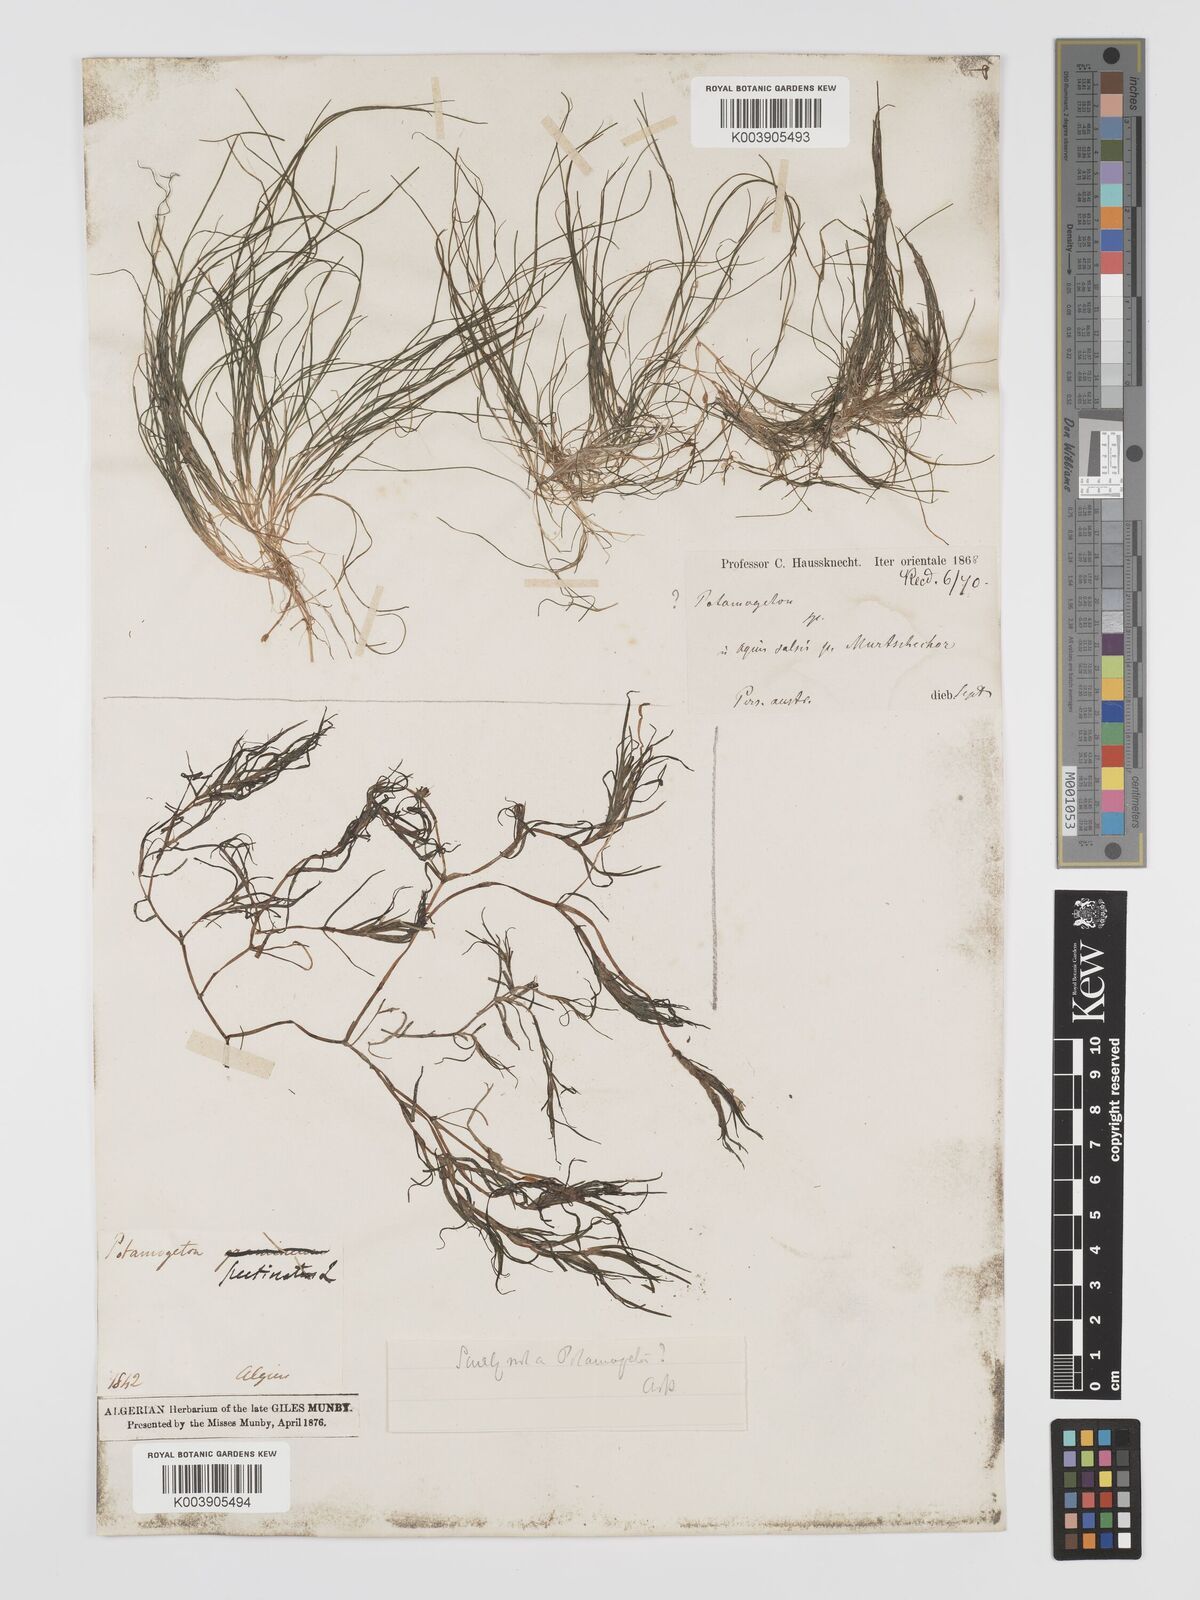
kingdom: Plantae
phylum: Tracheophyta
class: Liliopsida
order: Alismatales
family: Potamogetonaceae
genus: Stuckenia
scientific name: Stuckenia pectinata
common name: Sago pondweed
